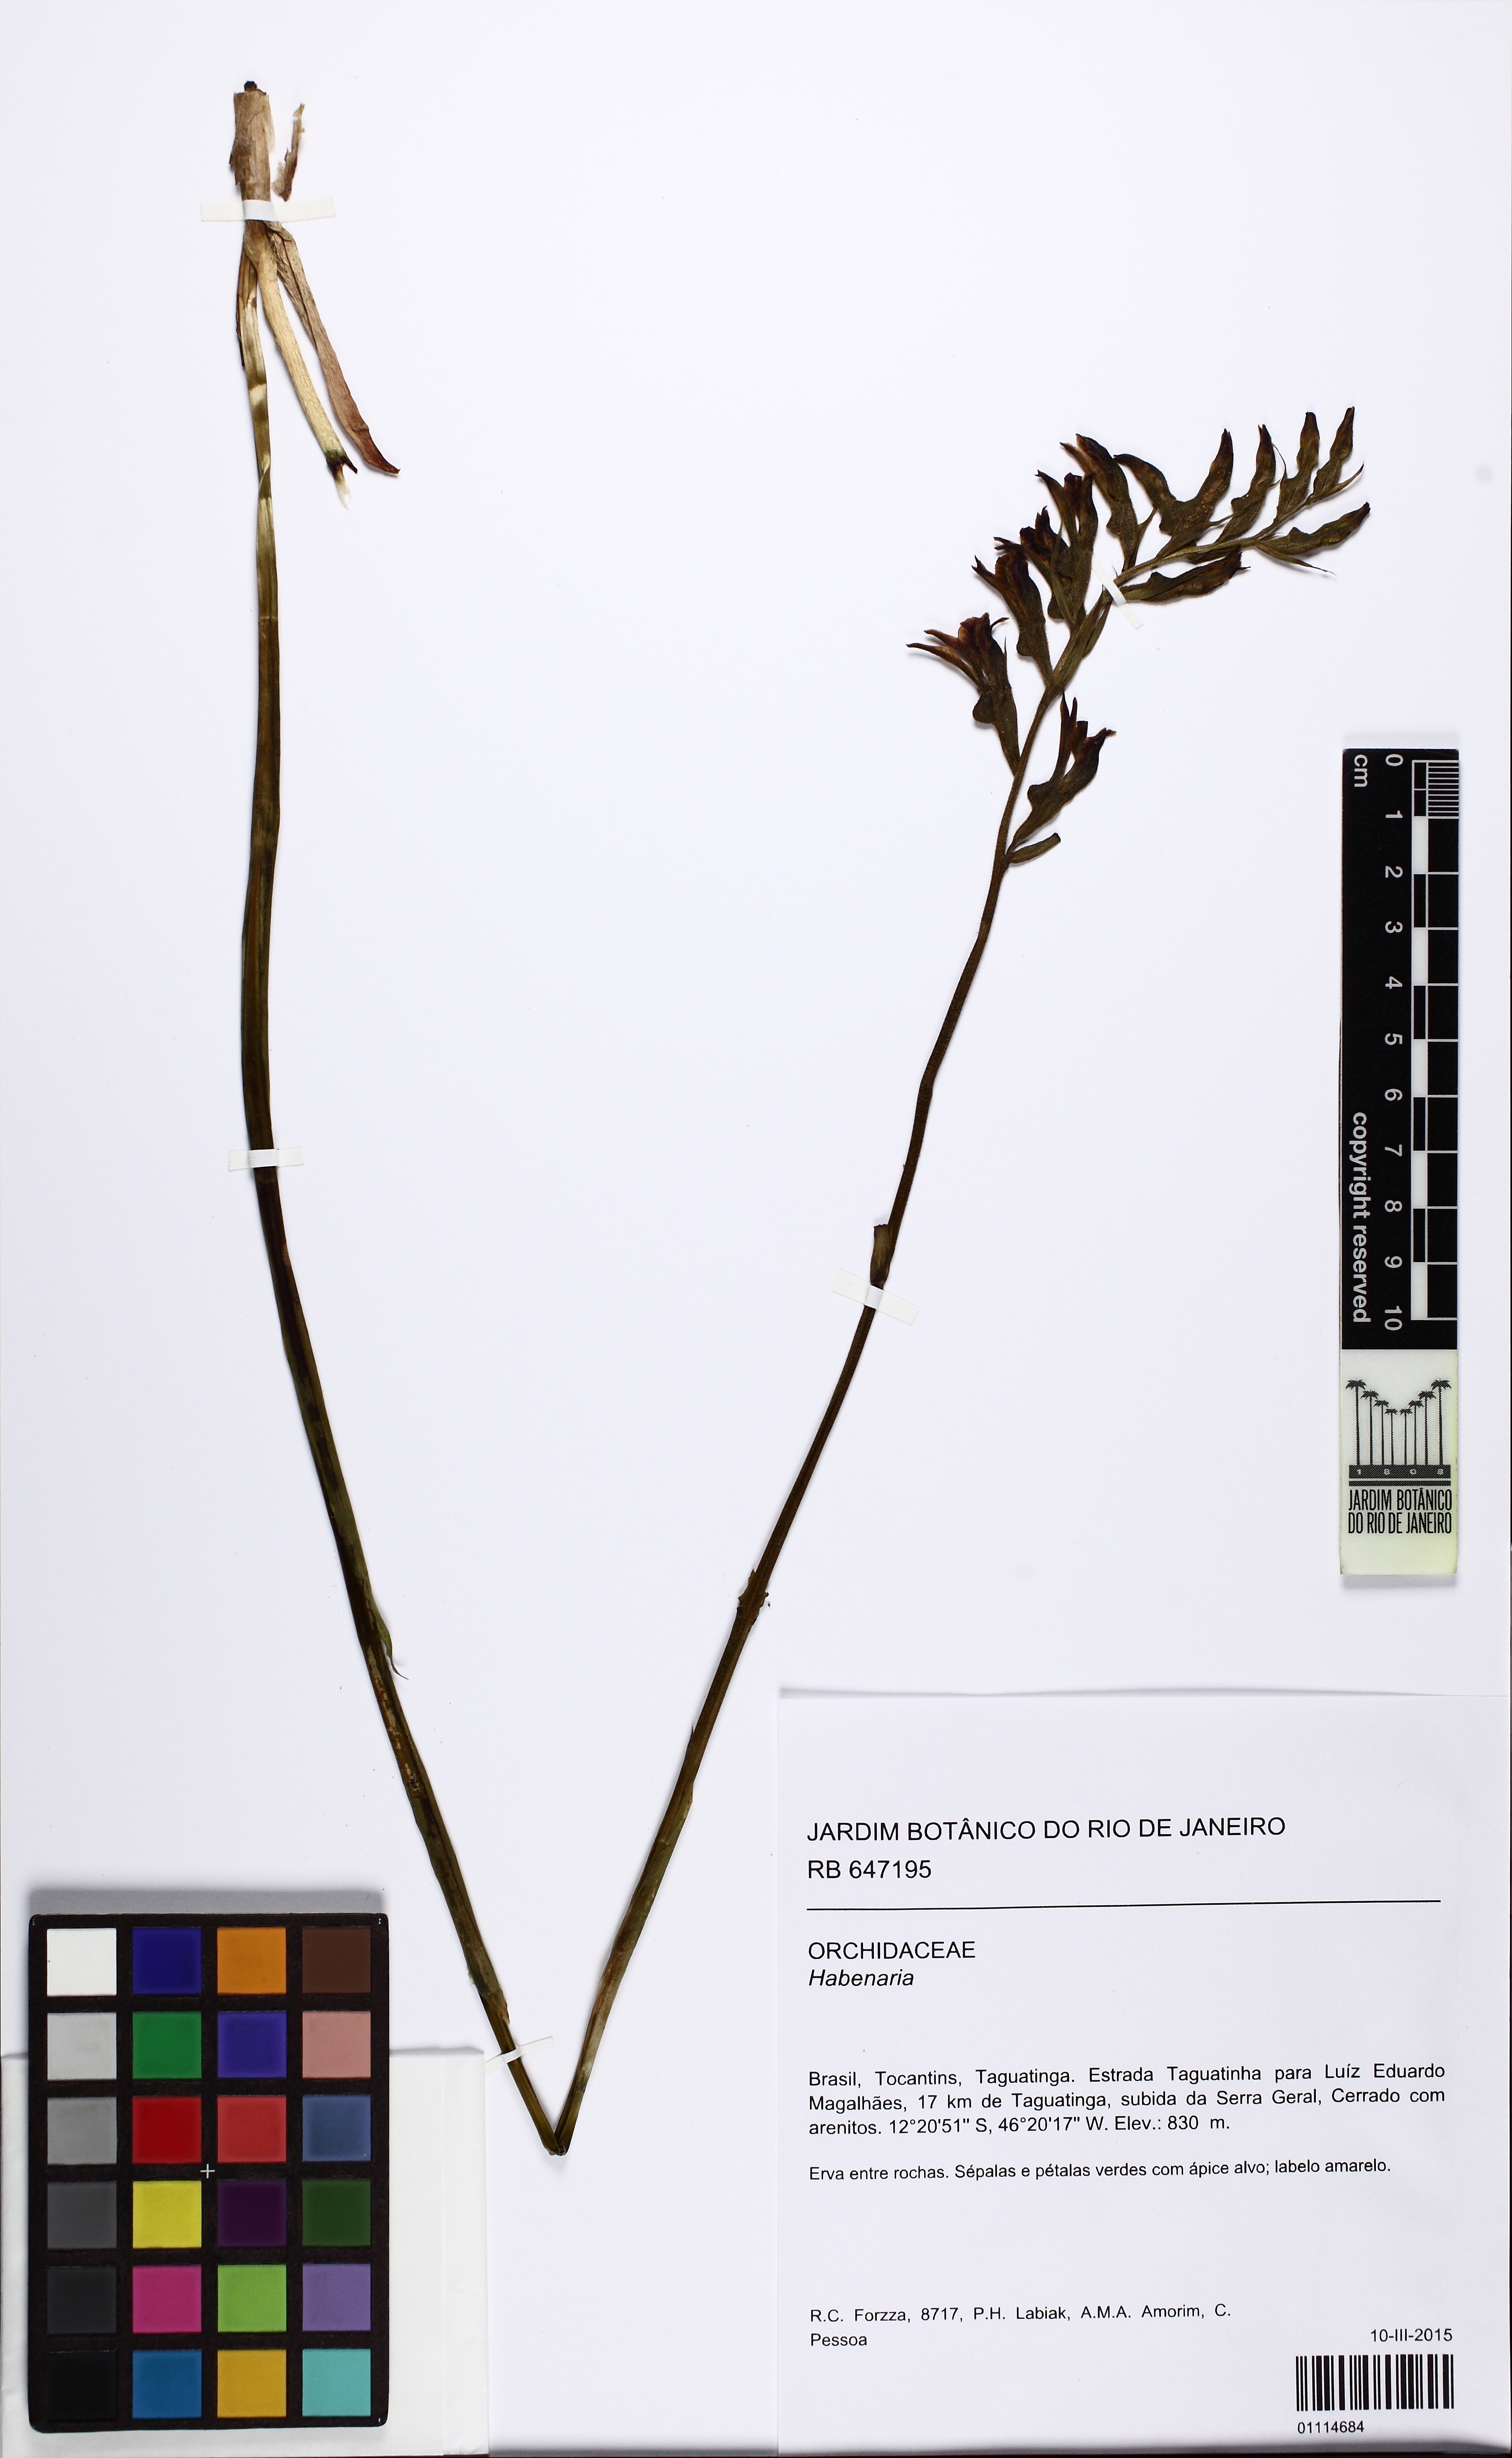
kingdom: Plantae
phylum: Tracheophyta
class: Liliopsida
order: Asparagales
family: Orchidaceae
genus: Pelexia
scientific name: Pelexia
